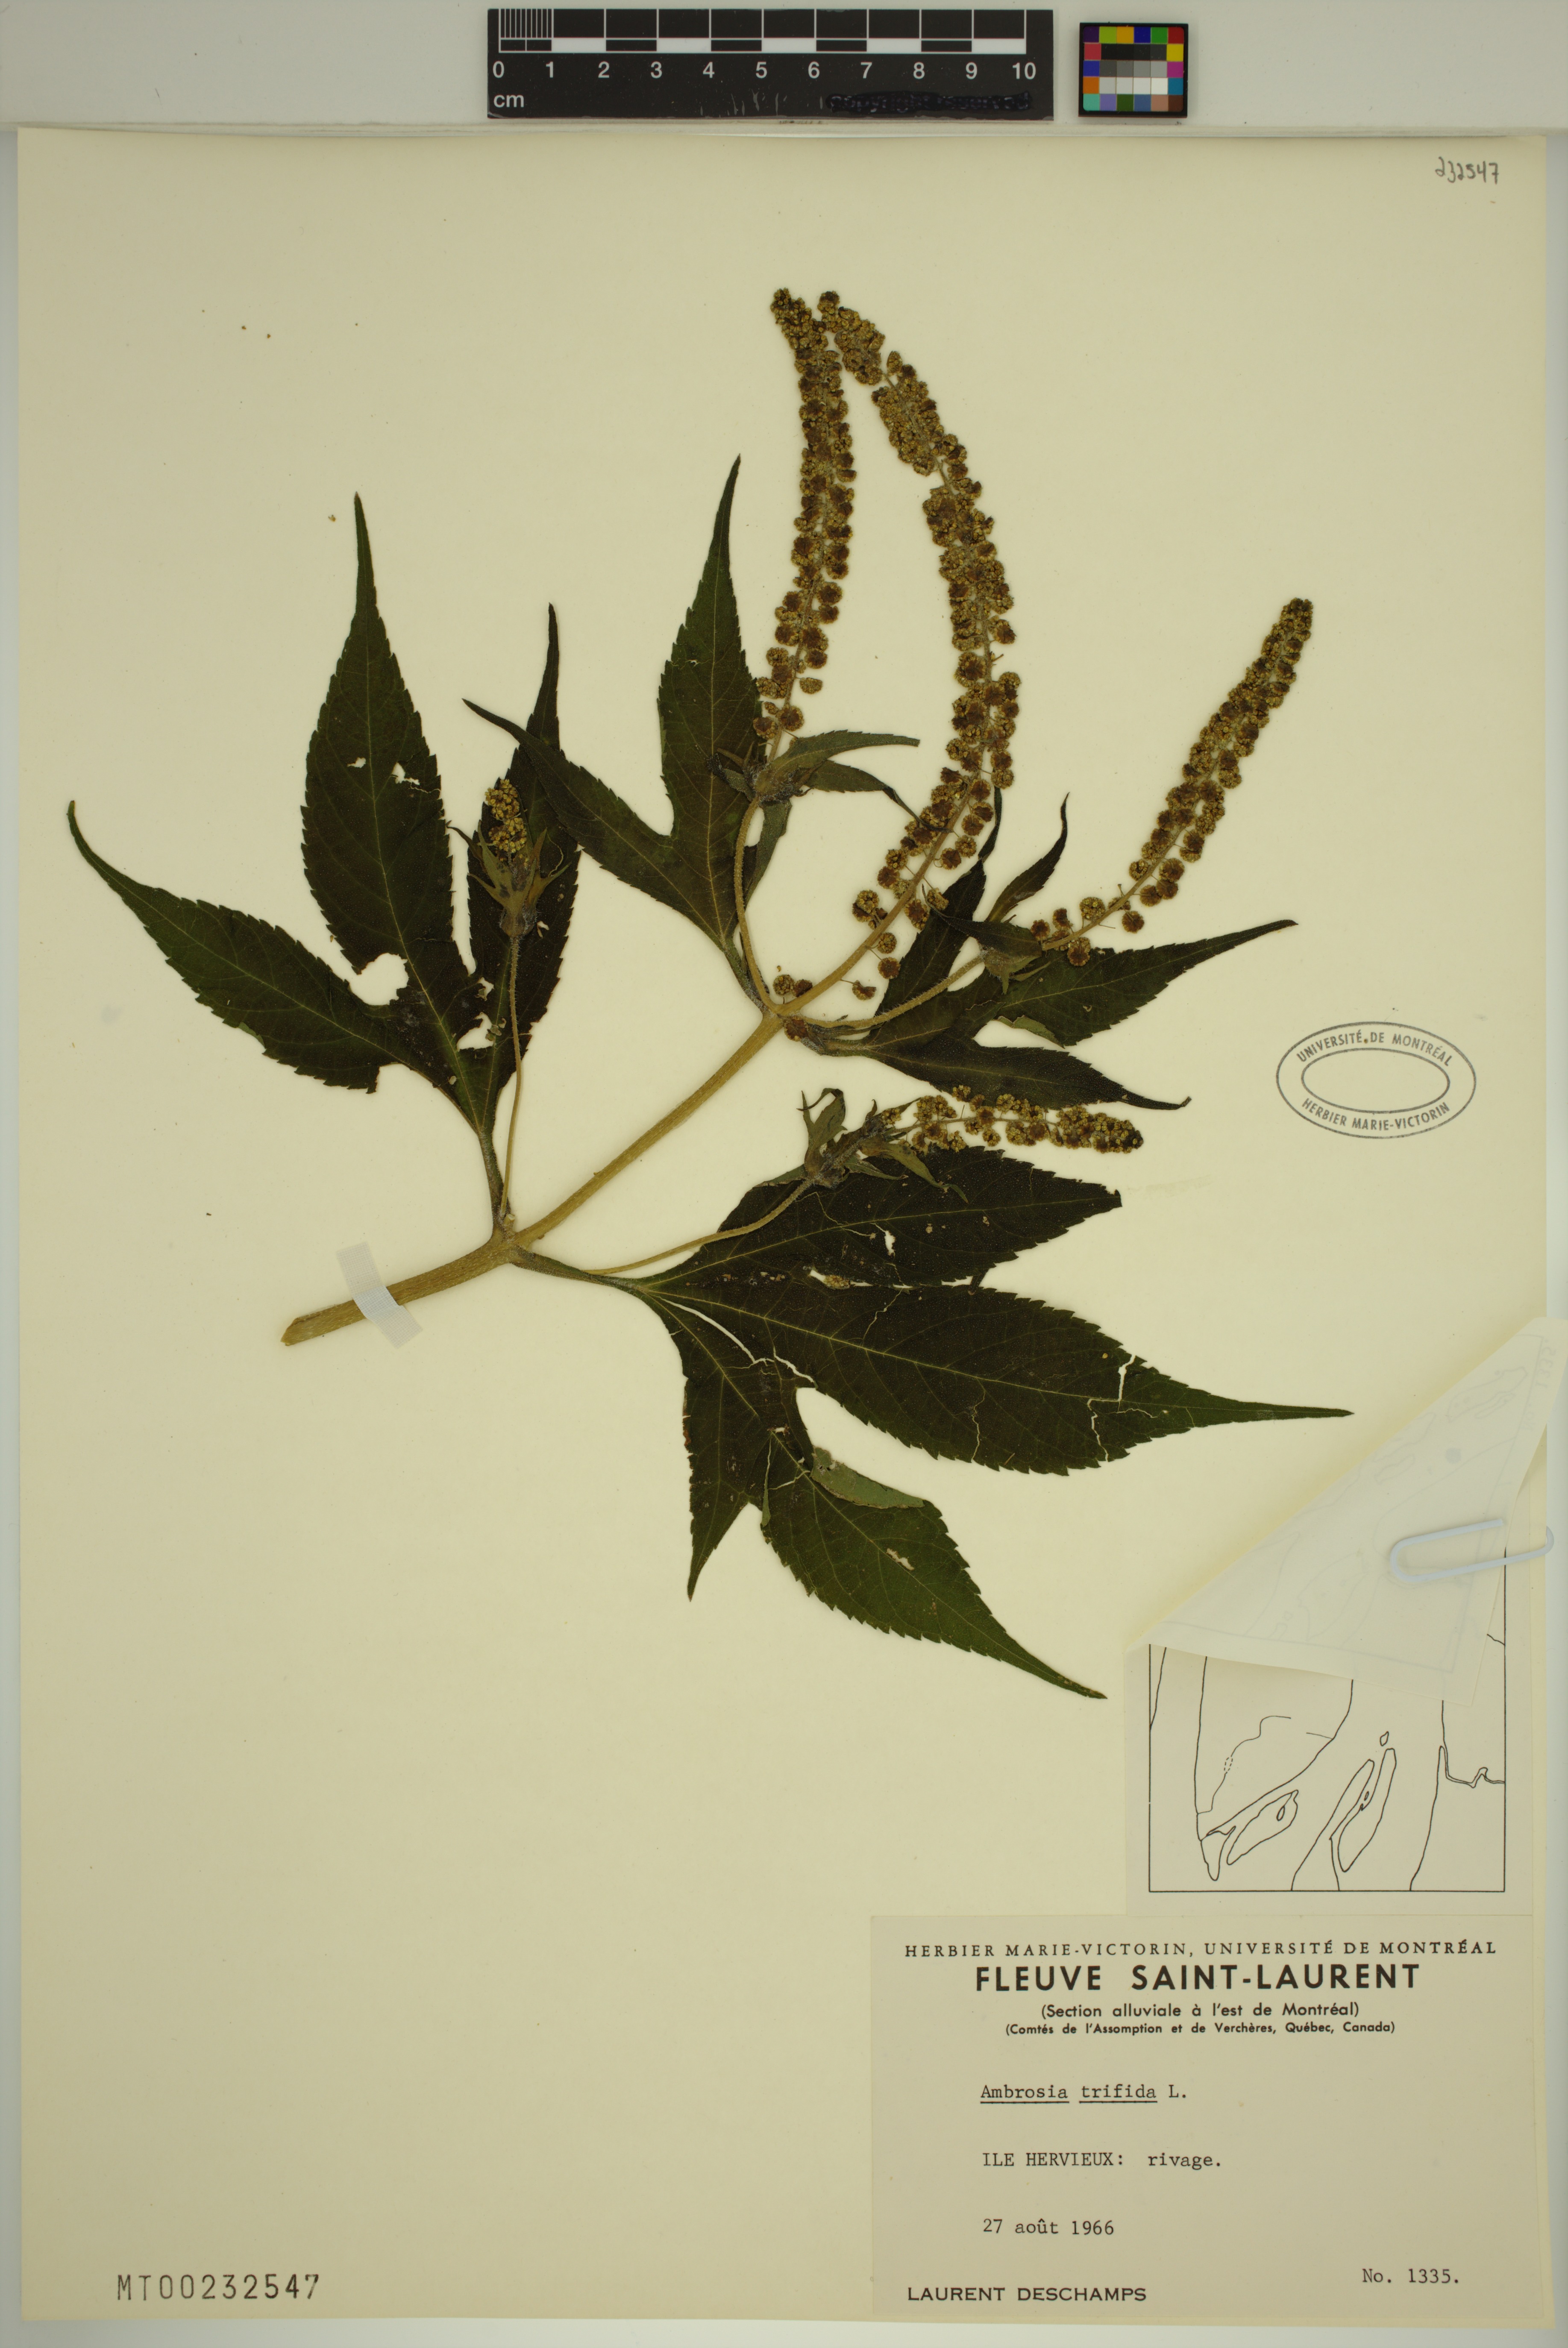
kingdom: Plantae
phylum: Tracheophyta
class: Magnoliopsida
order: Asterales
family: Asteraceae
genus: Ambrosia
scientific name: Ambrosia trifida
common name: Giant ragweed
